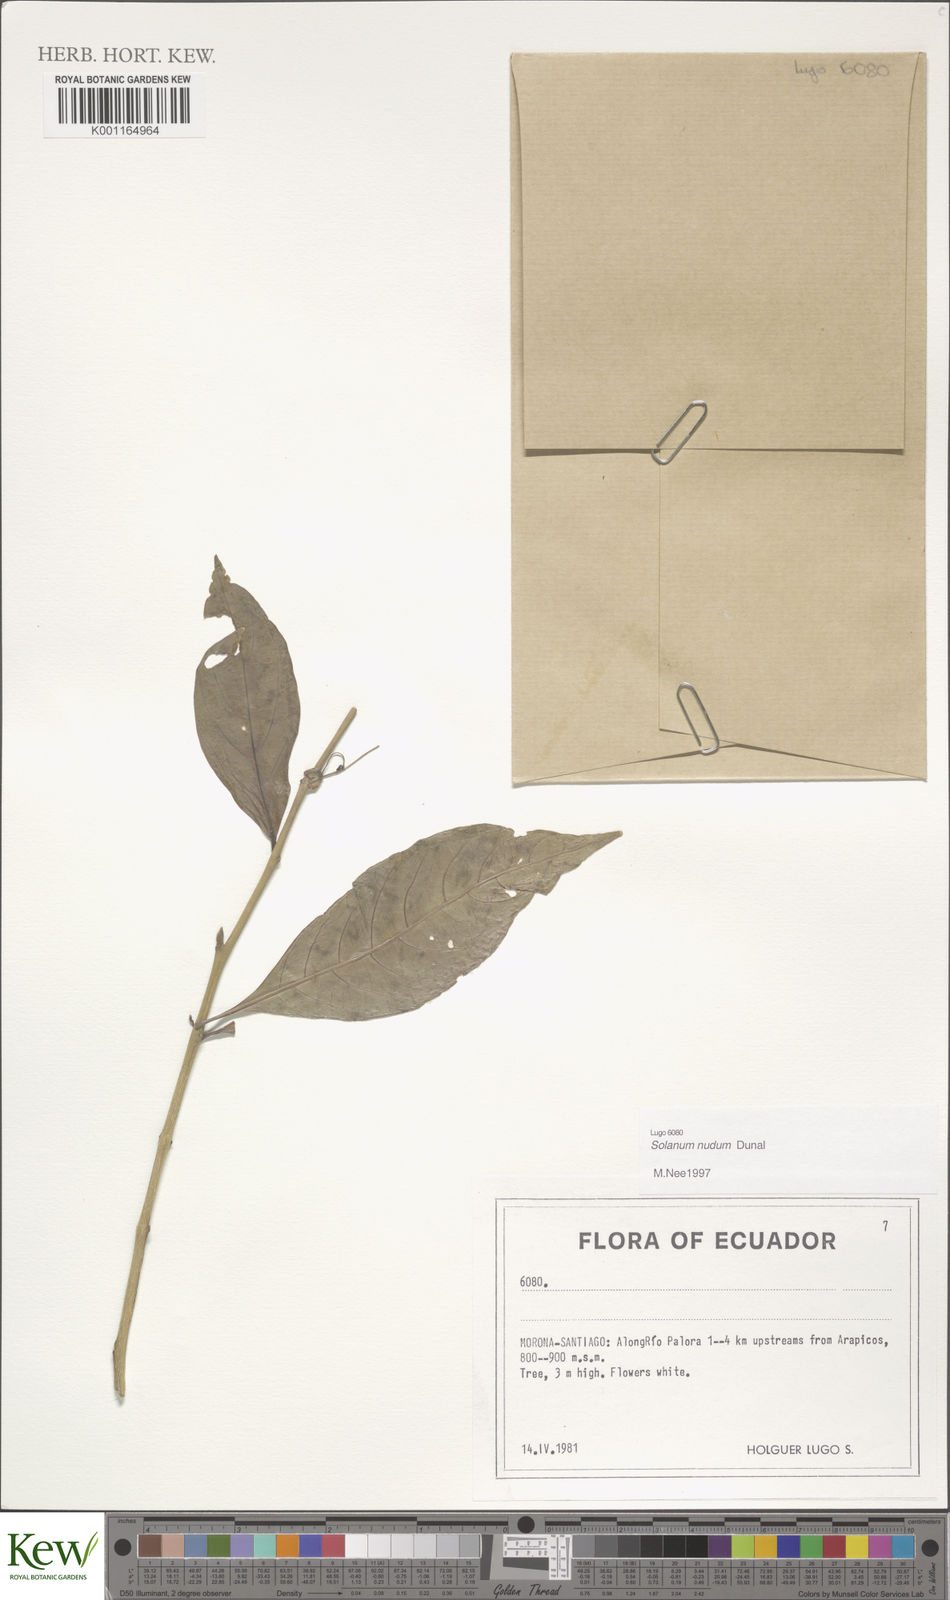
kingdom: Plantae
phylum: Tracheophyta
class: Magnoliopsida
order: Solanales
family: Solanaceae
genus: Solanum
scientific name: Solanum nudum
